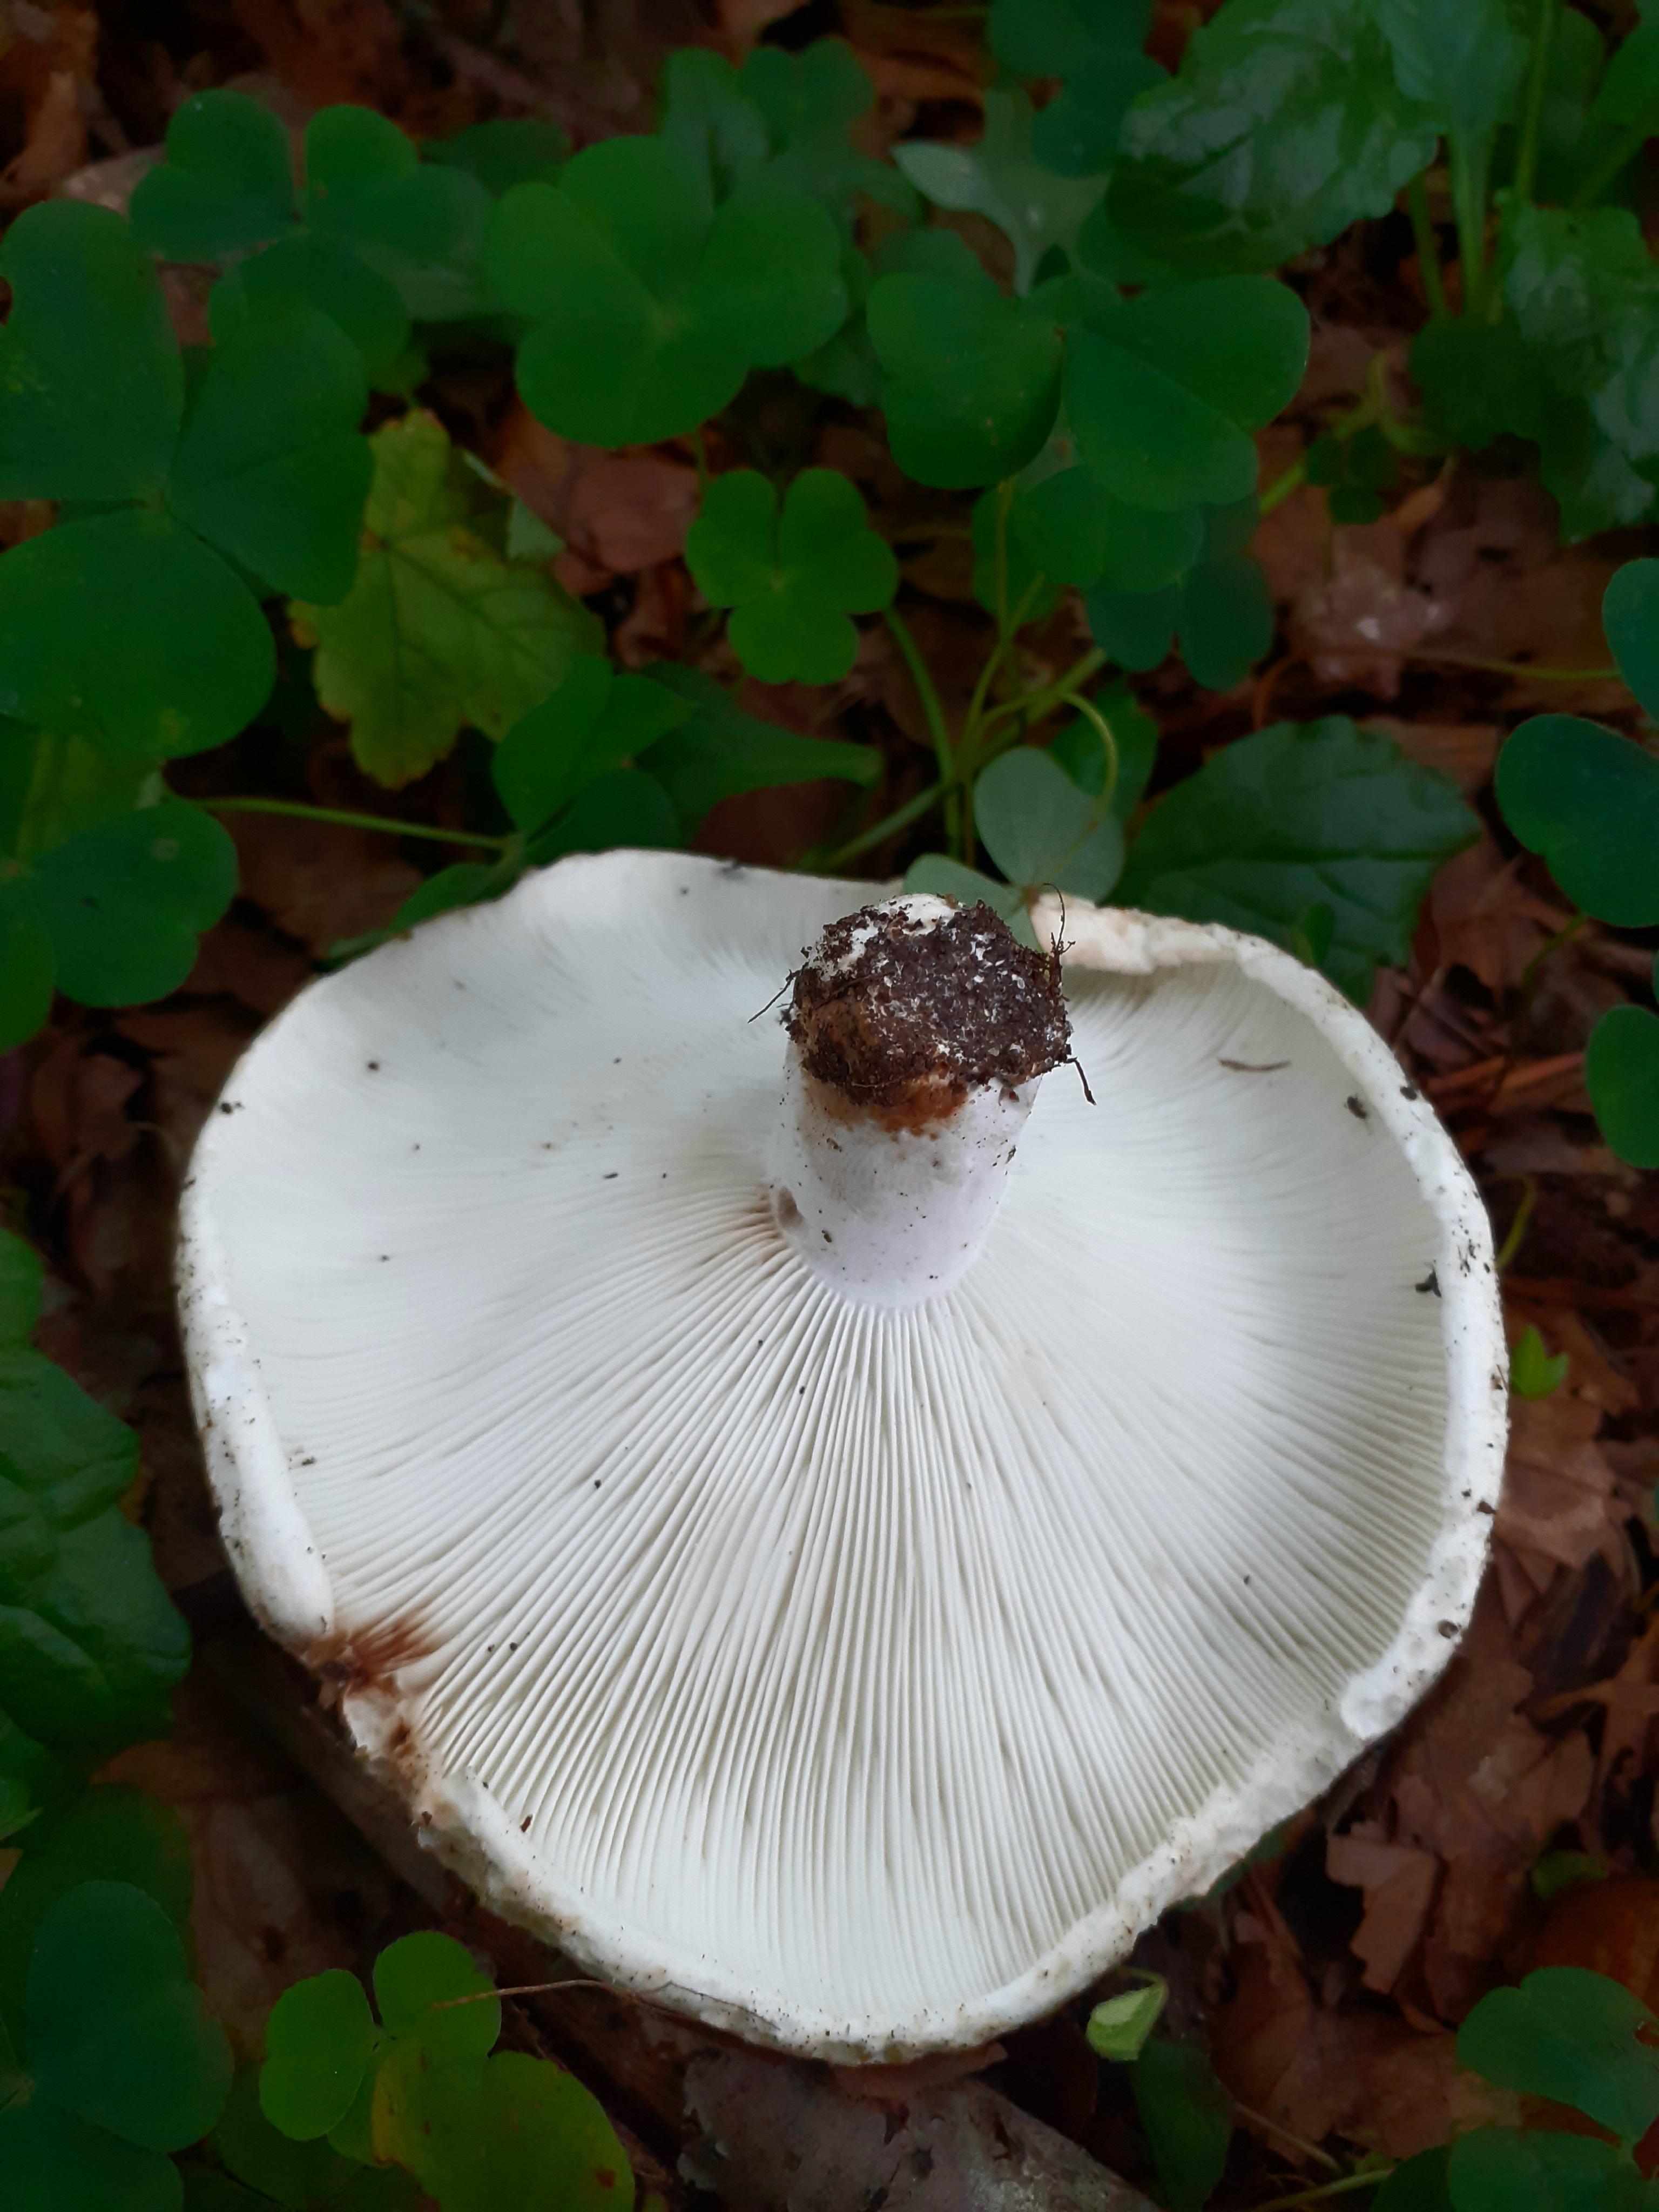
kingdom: Fungi
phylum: Basidiomycota
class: Agaricomycetes
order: Russulales
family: Russulaceae
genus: Russula
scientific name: Russula chloroides
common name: grønhalset tragt-skørhat
